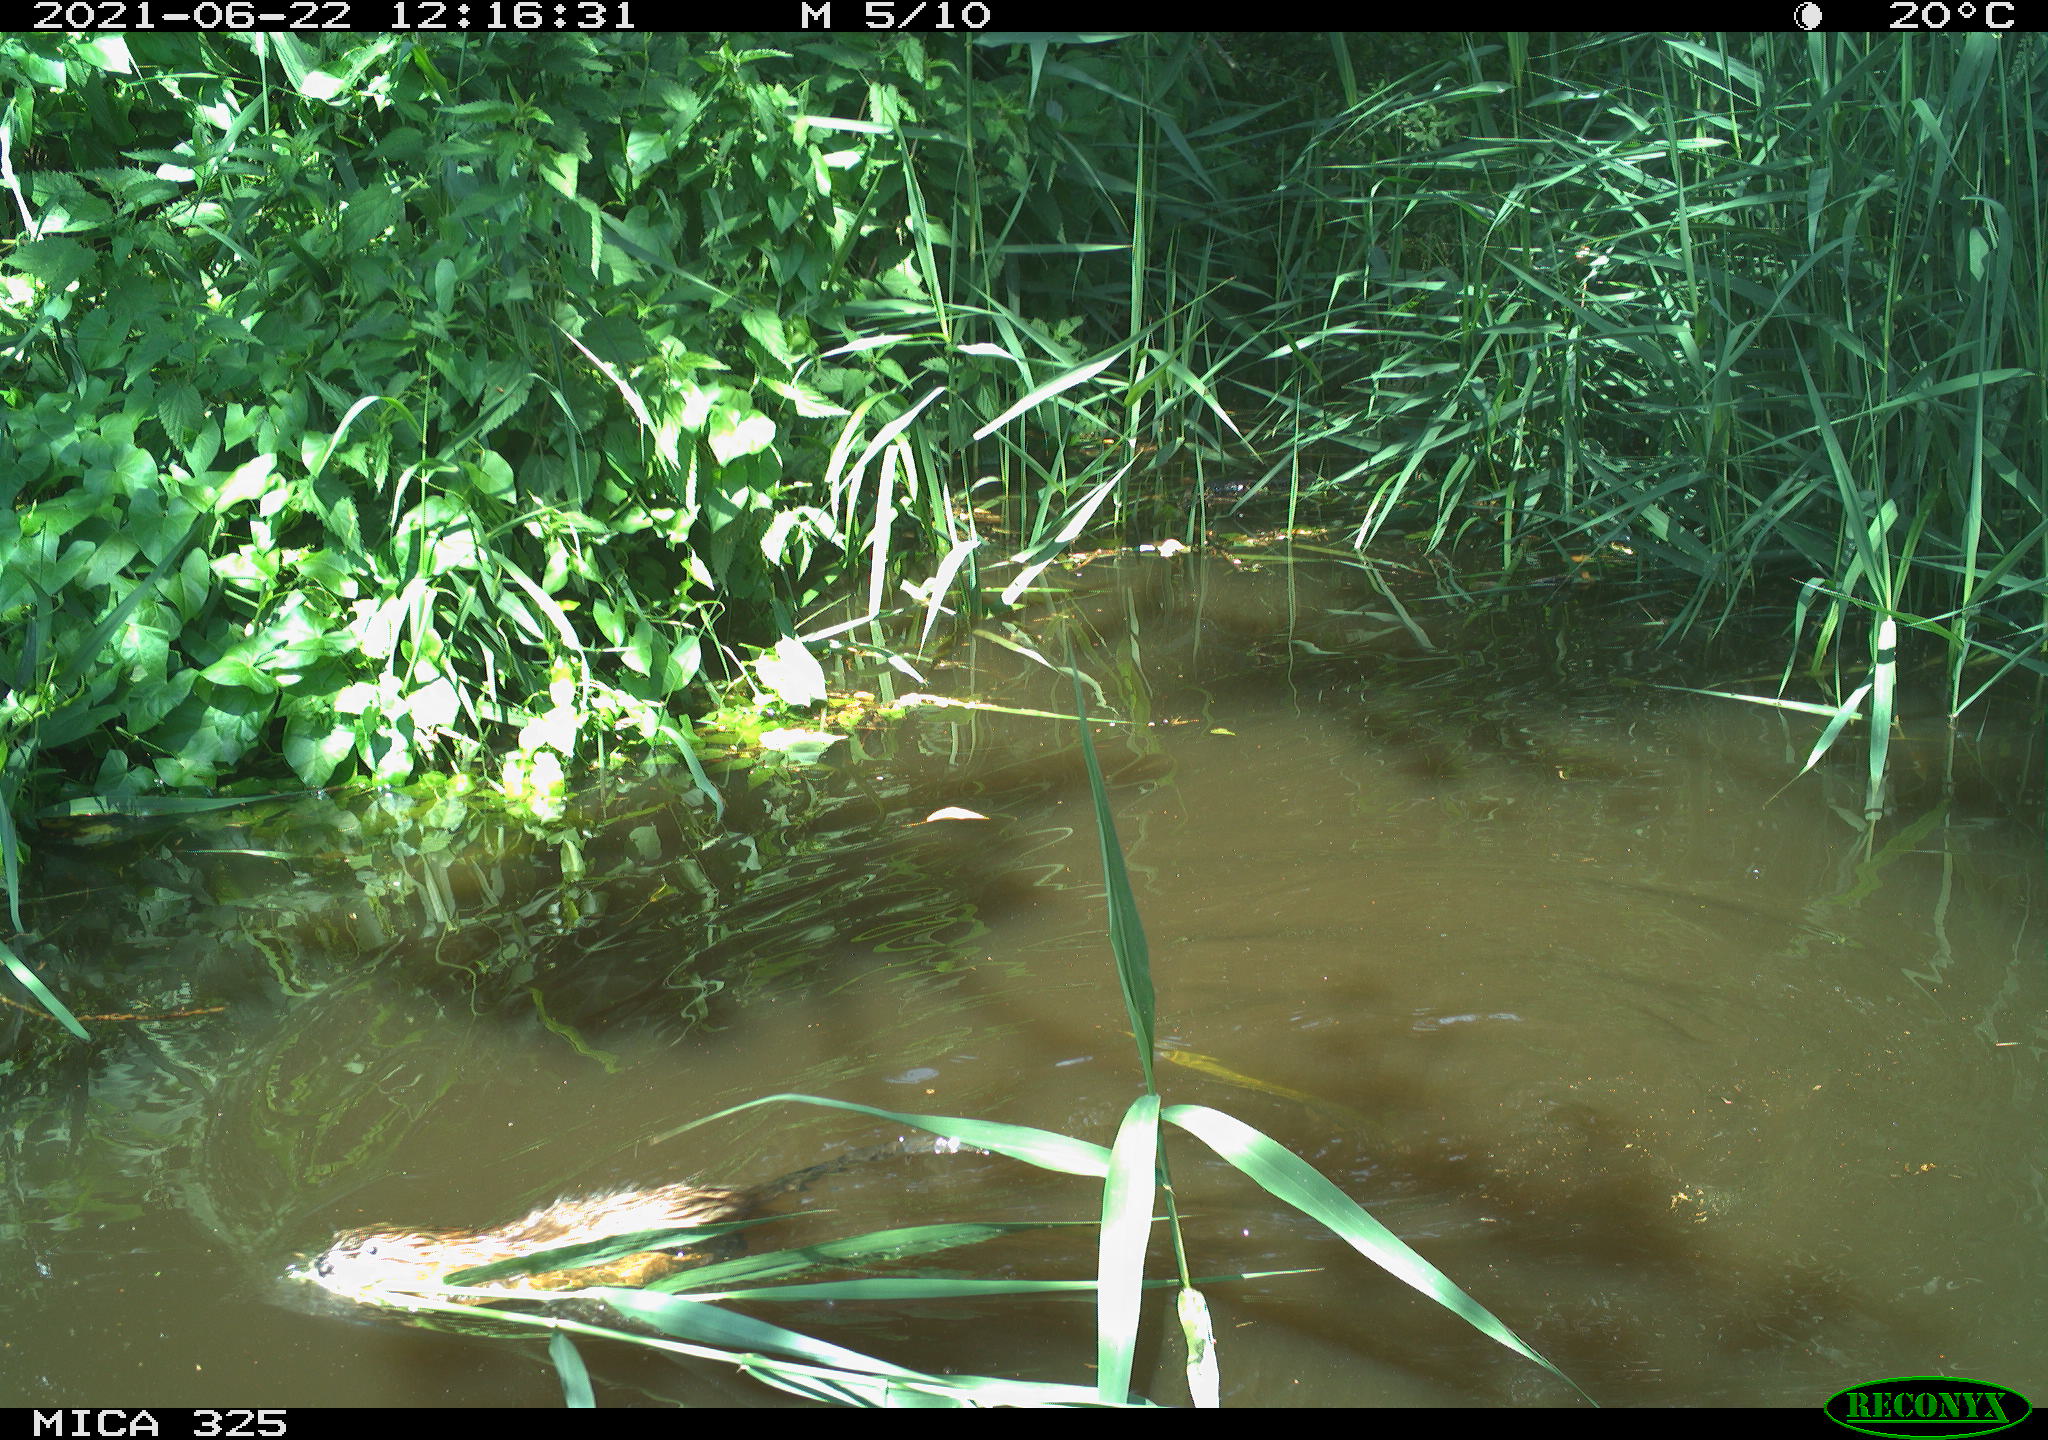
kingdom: Animalia
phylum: Chordata
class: Mammalia
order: Rodentia
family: Cricetidae
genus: Ondatra
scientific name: Ondatra zibethicus
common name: Muskrat
